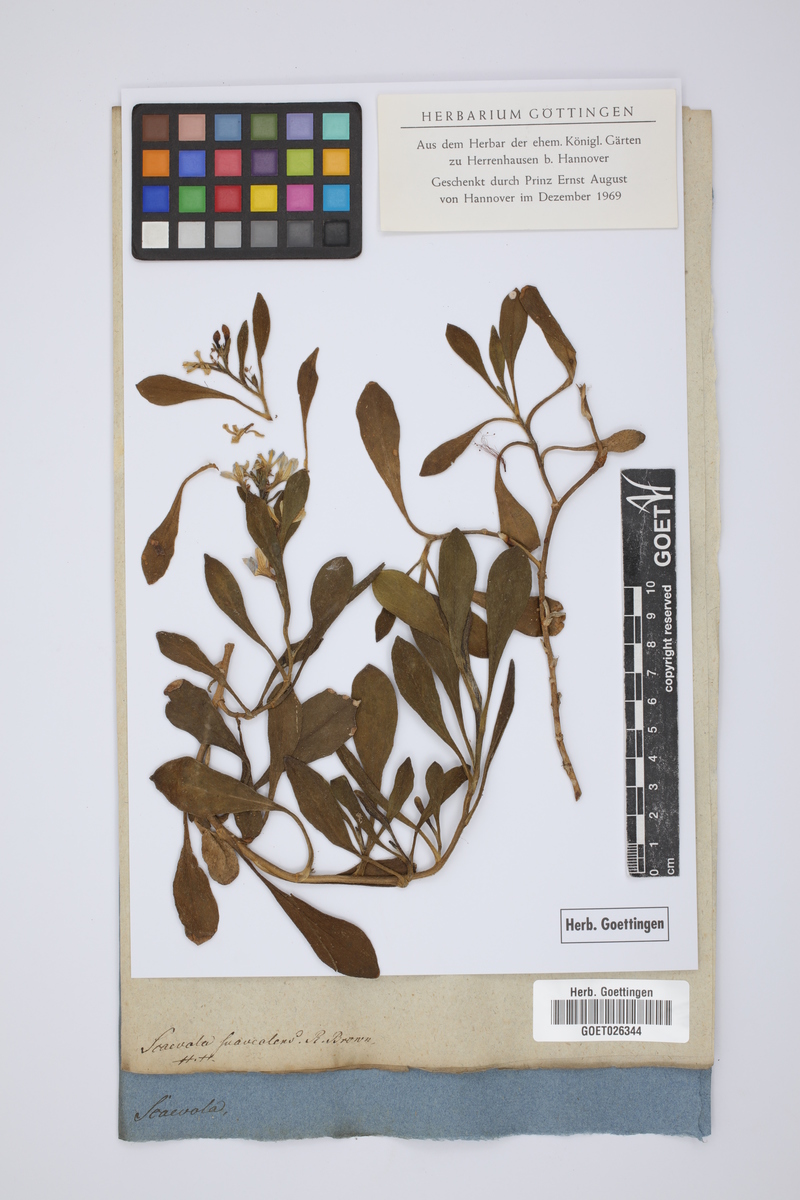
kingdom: Plantae
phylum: Tracheophyta
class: Magnoliopsida
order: Asterales
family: Goodeniaceae
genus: Scaevola
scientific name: Scaevola calendulacea
